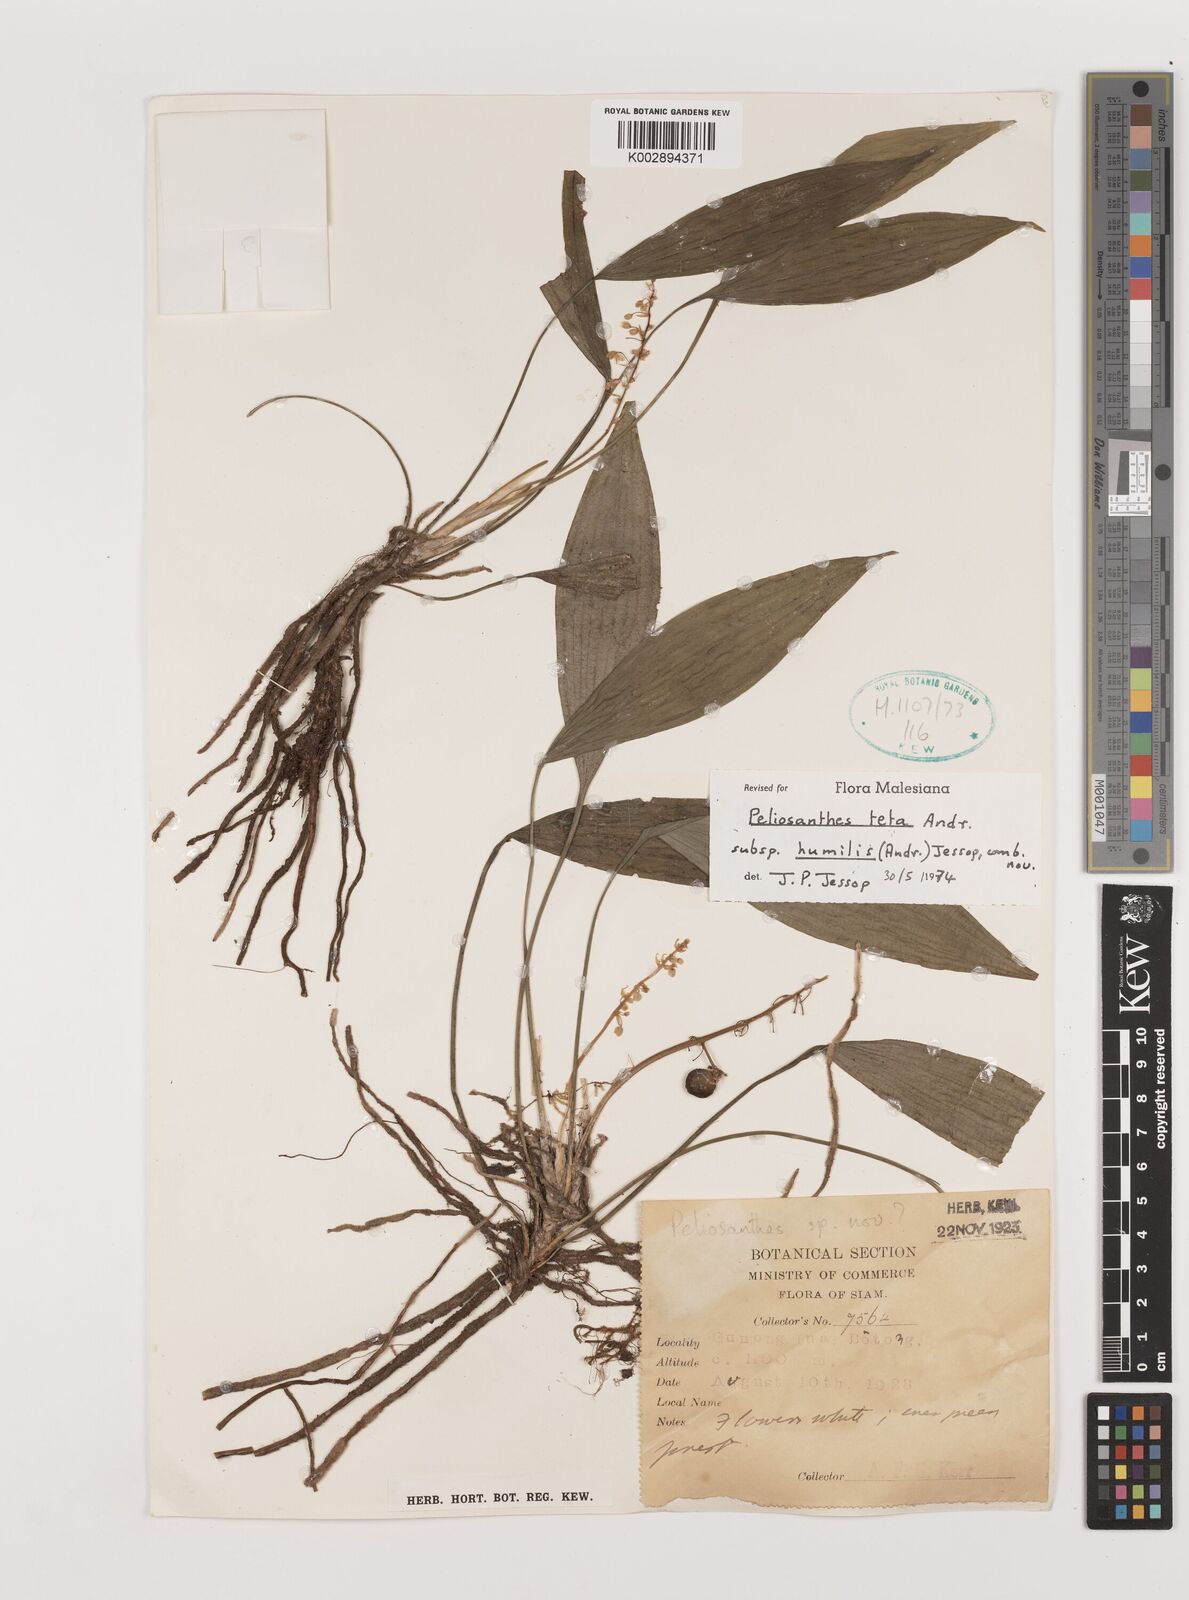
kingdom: Plantae
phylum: Tracheophyta
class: Liliopsida
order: Asparagales
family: Asparagaceae
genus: Peliosanthes
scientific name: Peliosanthes teta
